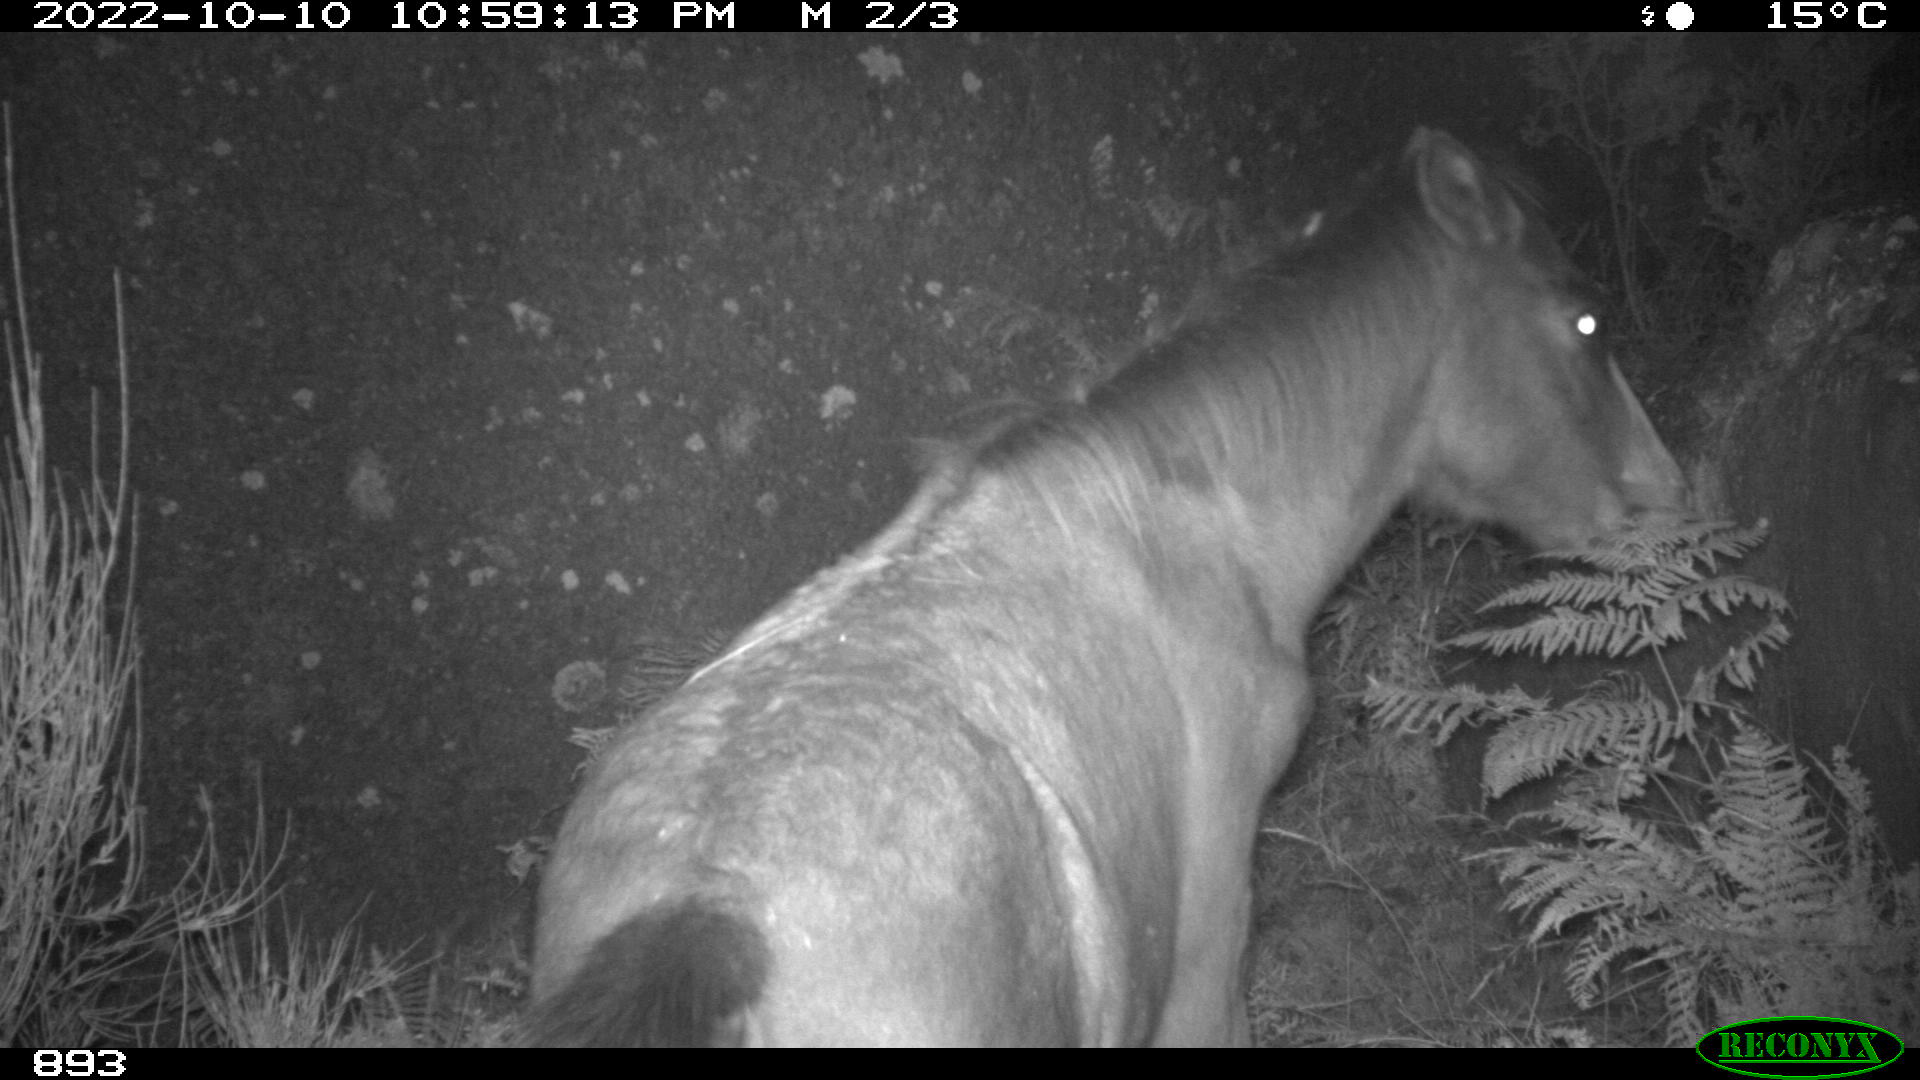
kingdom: Animalia
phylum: Chordata
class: Mammalia
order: Perissodactyla
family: Equidae
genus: Equus
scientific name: Equus caballus
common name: Horse
